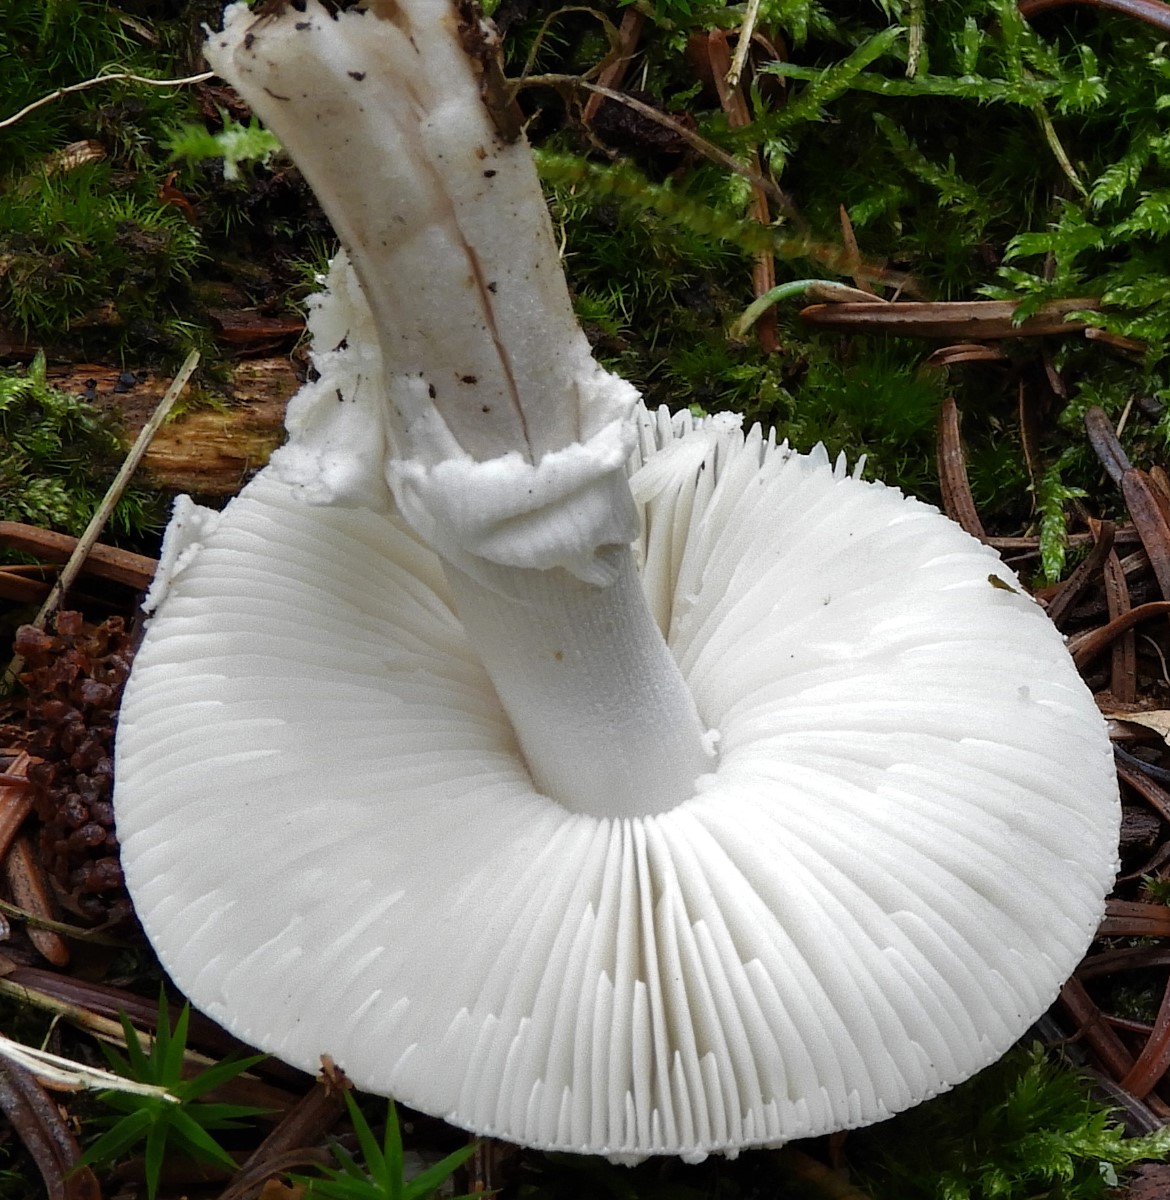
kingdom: Fungi
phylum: Basidiomycota
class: Agaricomycetes
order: Agaricales
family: Amanitaceae
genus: Amanita
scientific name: Amanita
